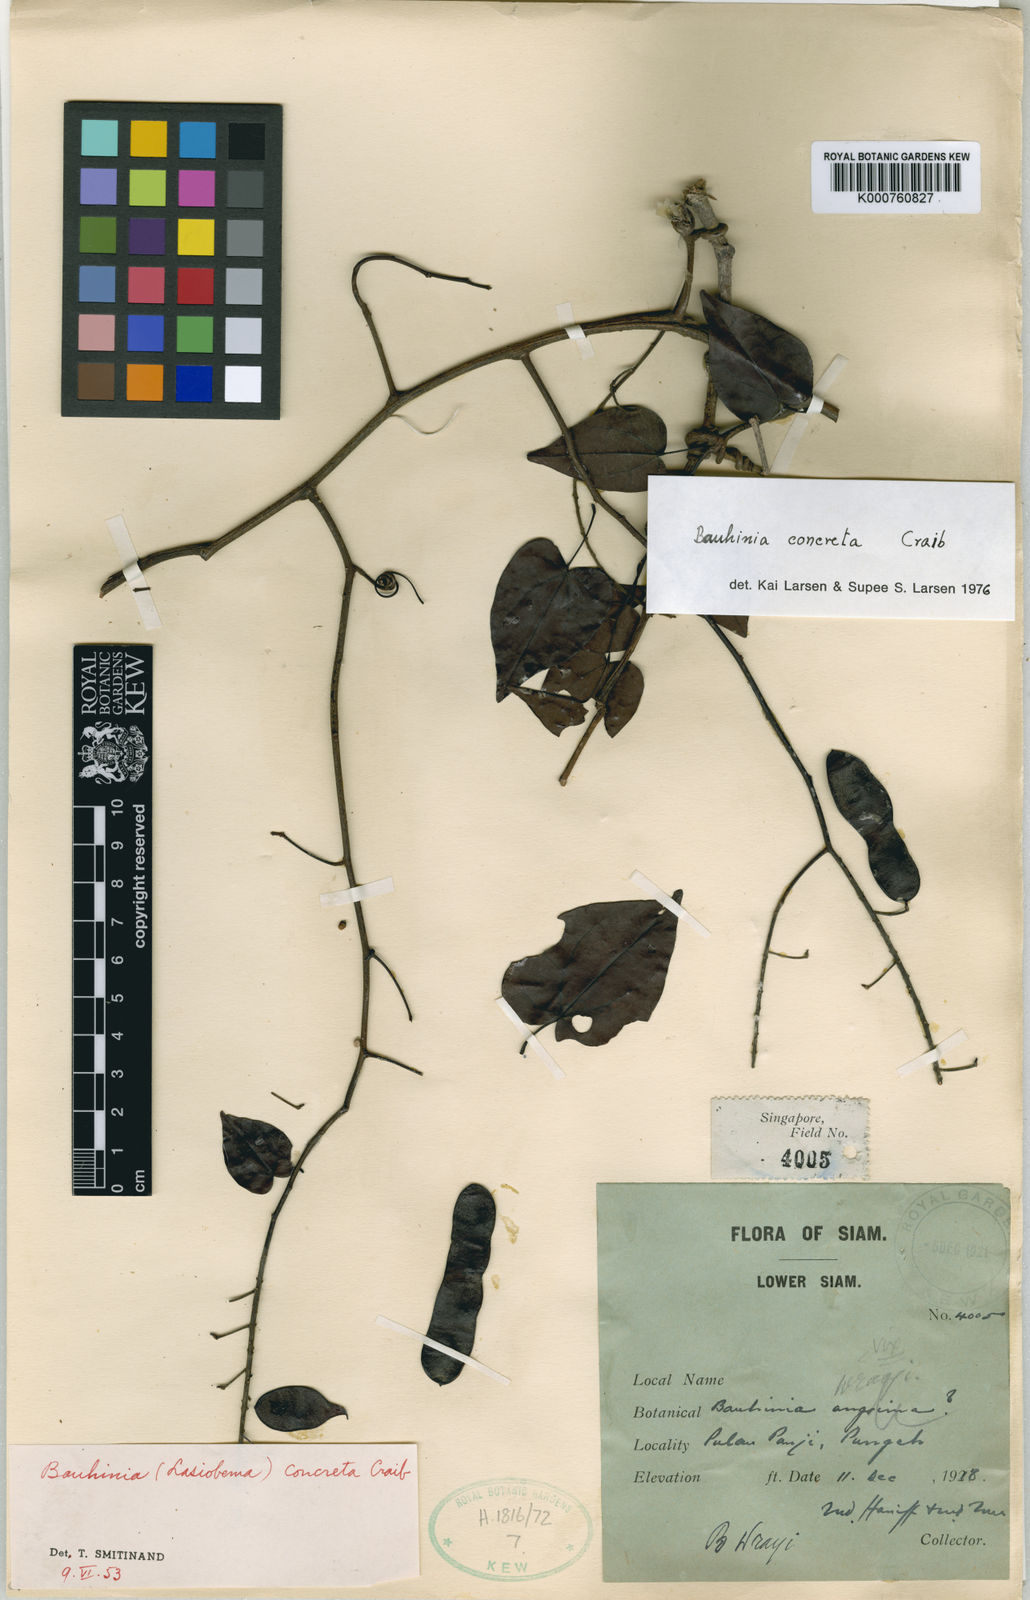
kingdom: Plantae
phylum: Tracheophyta
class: Magnoliopsida
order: Fabales
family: Fabaceae
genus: Phanera
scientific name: Phanera concreta
